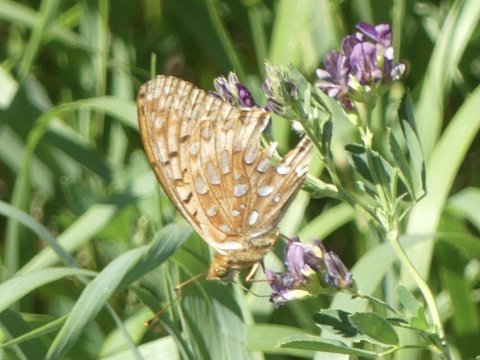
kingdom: Animalia
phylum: Arthropoda
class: Insecta
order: Lepidoptera
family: Nymphalidae
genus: Speyeria
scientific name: Speyeria aphrodite
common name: Aphrodite Fritillary
